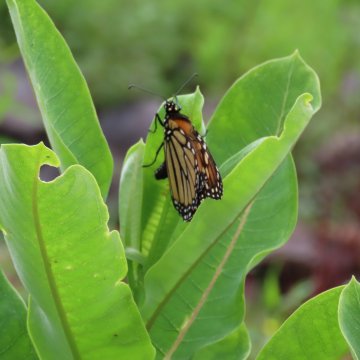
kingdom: Animalia
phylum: Arthropoda
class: Insecta
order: Lepidoptera
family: Nymphalidae
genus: Danaus
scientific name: Danaus plexippus
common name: Monarch
